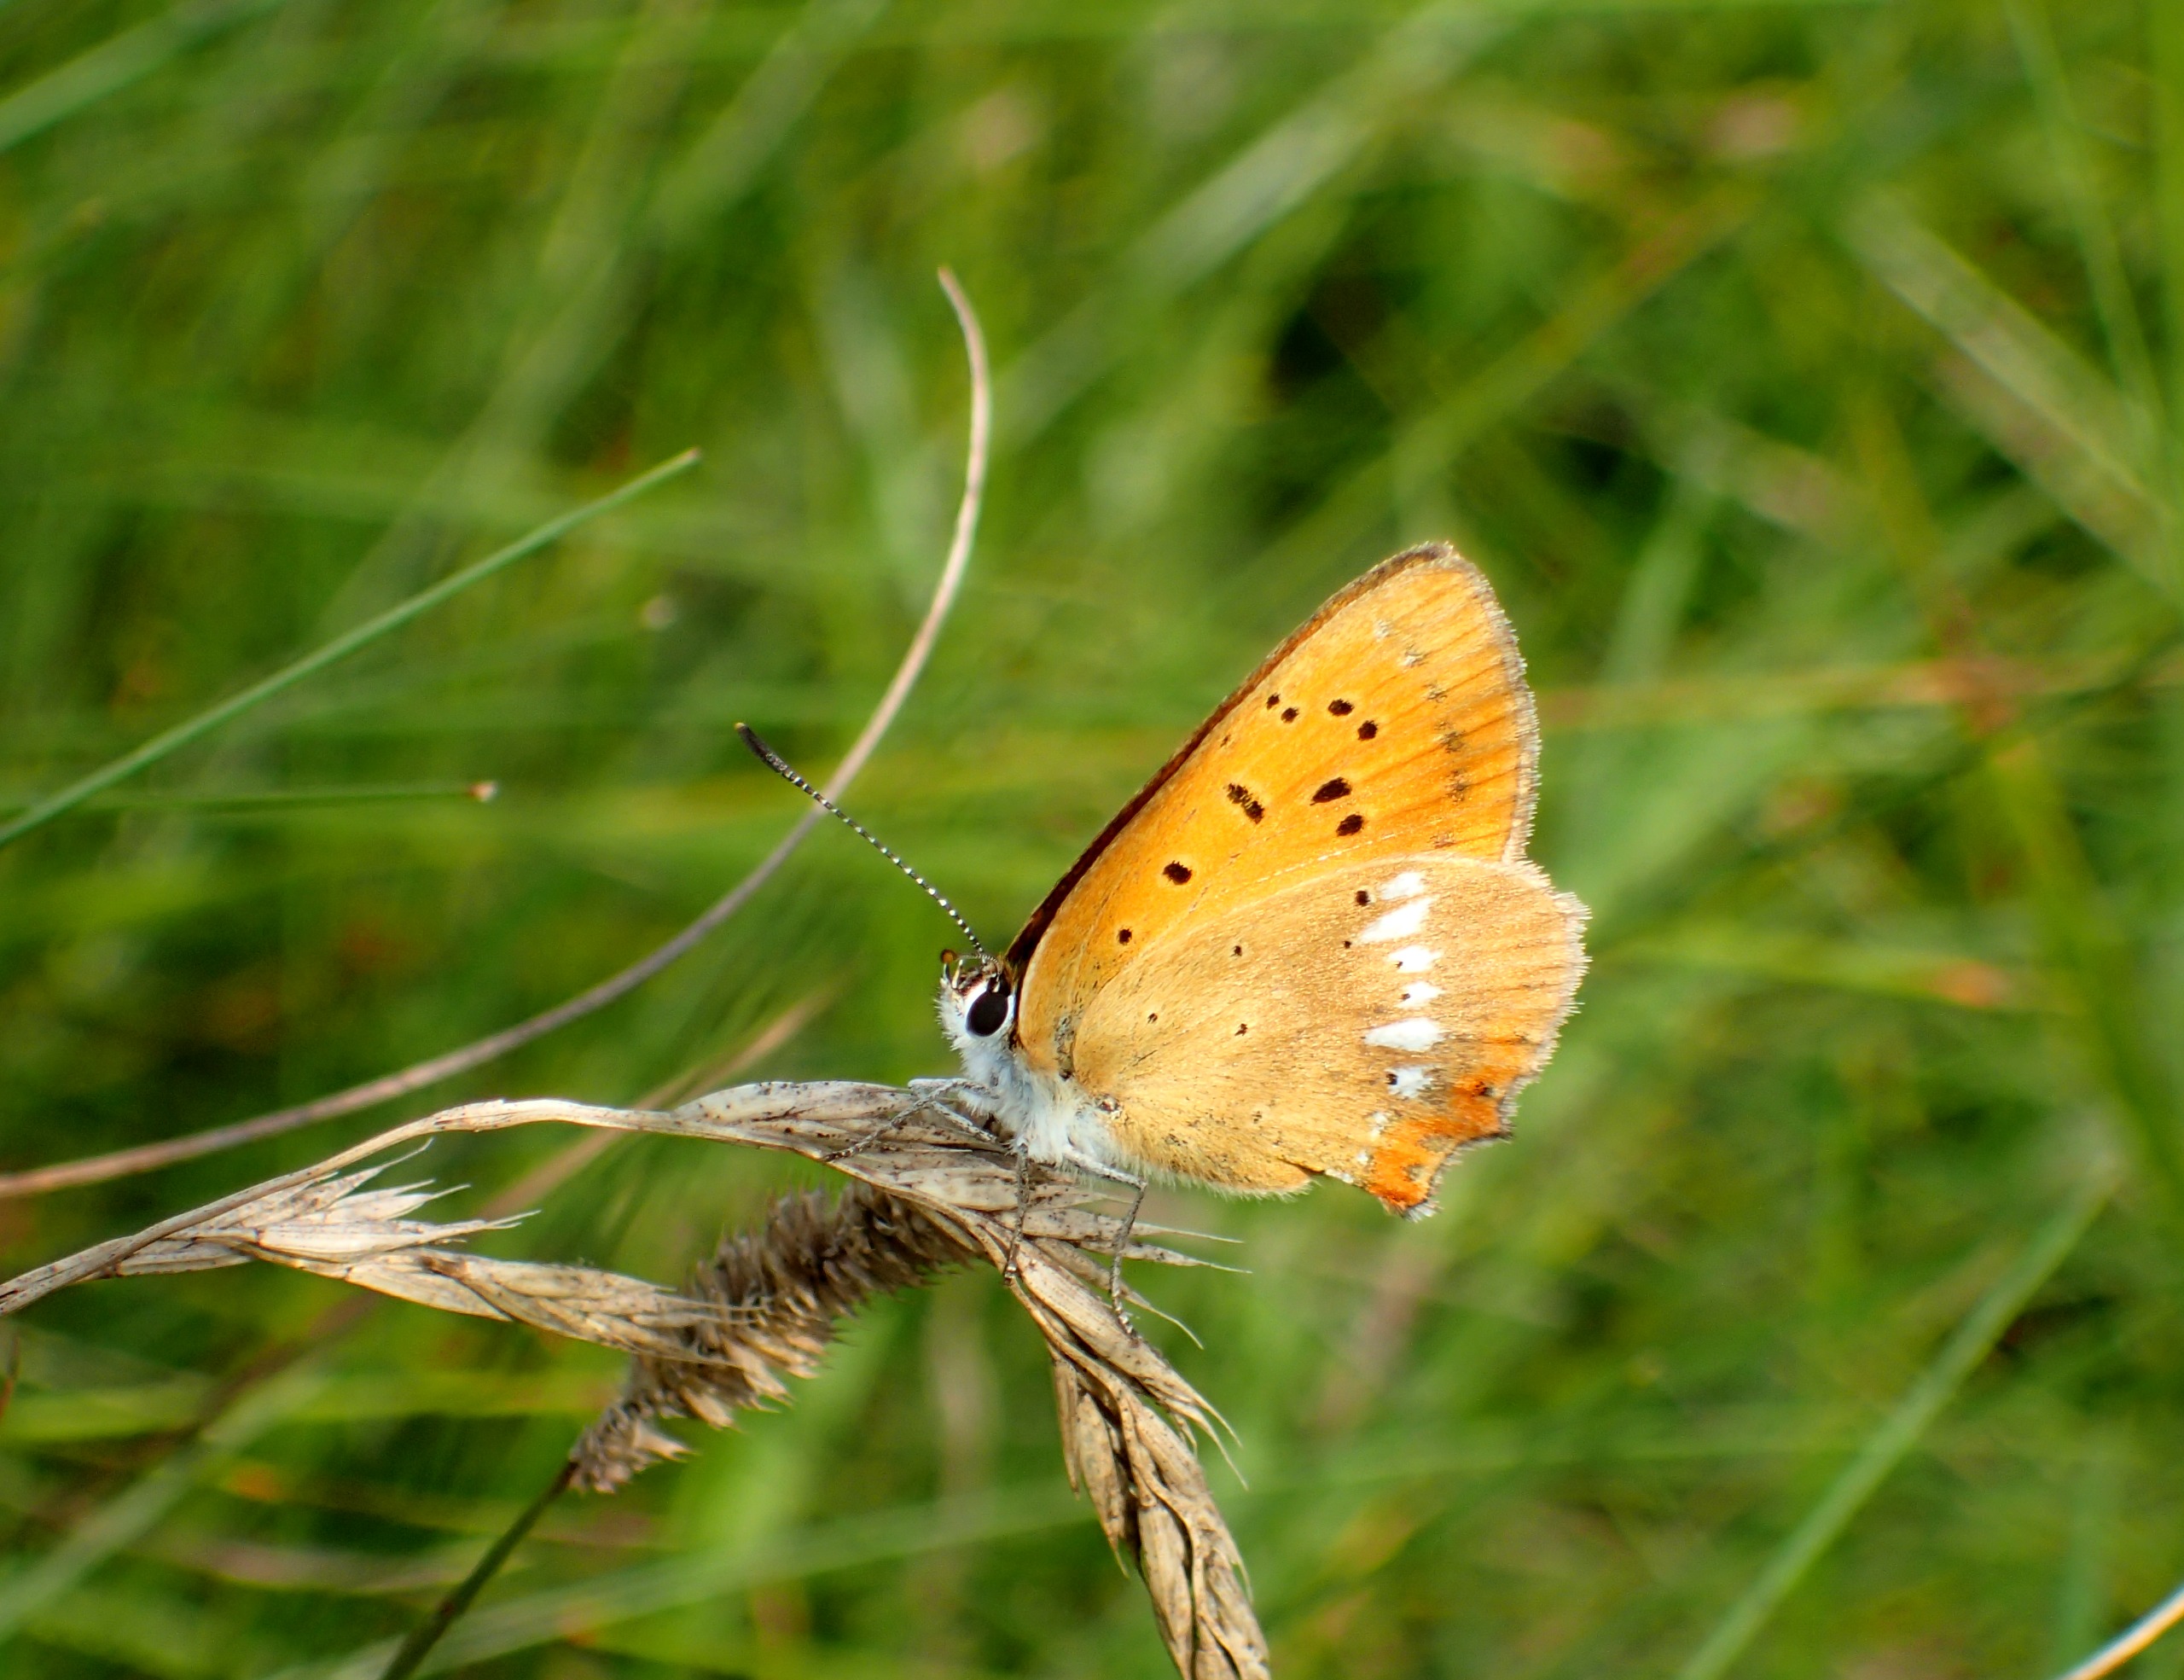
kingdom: Animalia
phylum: Arthropoda
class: Insecta
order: Lepidoptera
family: Lycaenidae
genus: Lycaena
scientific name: Lycaena virgaureae
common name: Dukatsommerfugl
